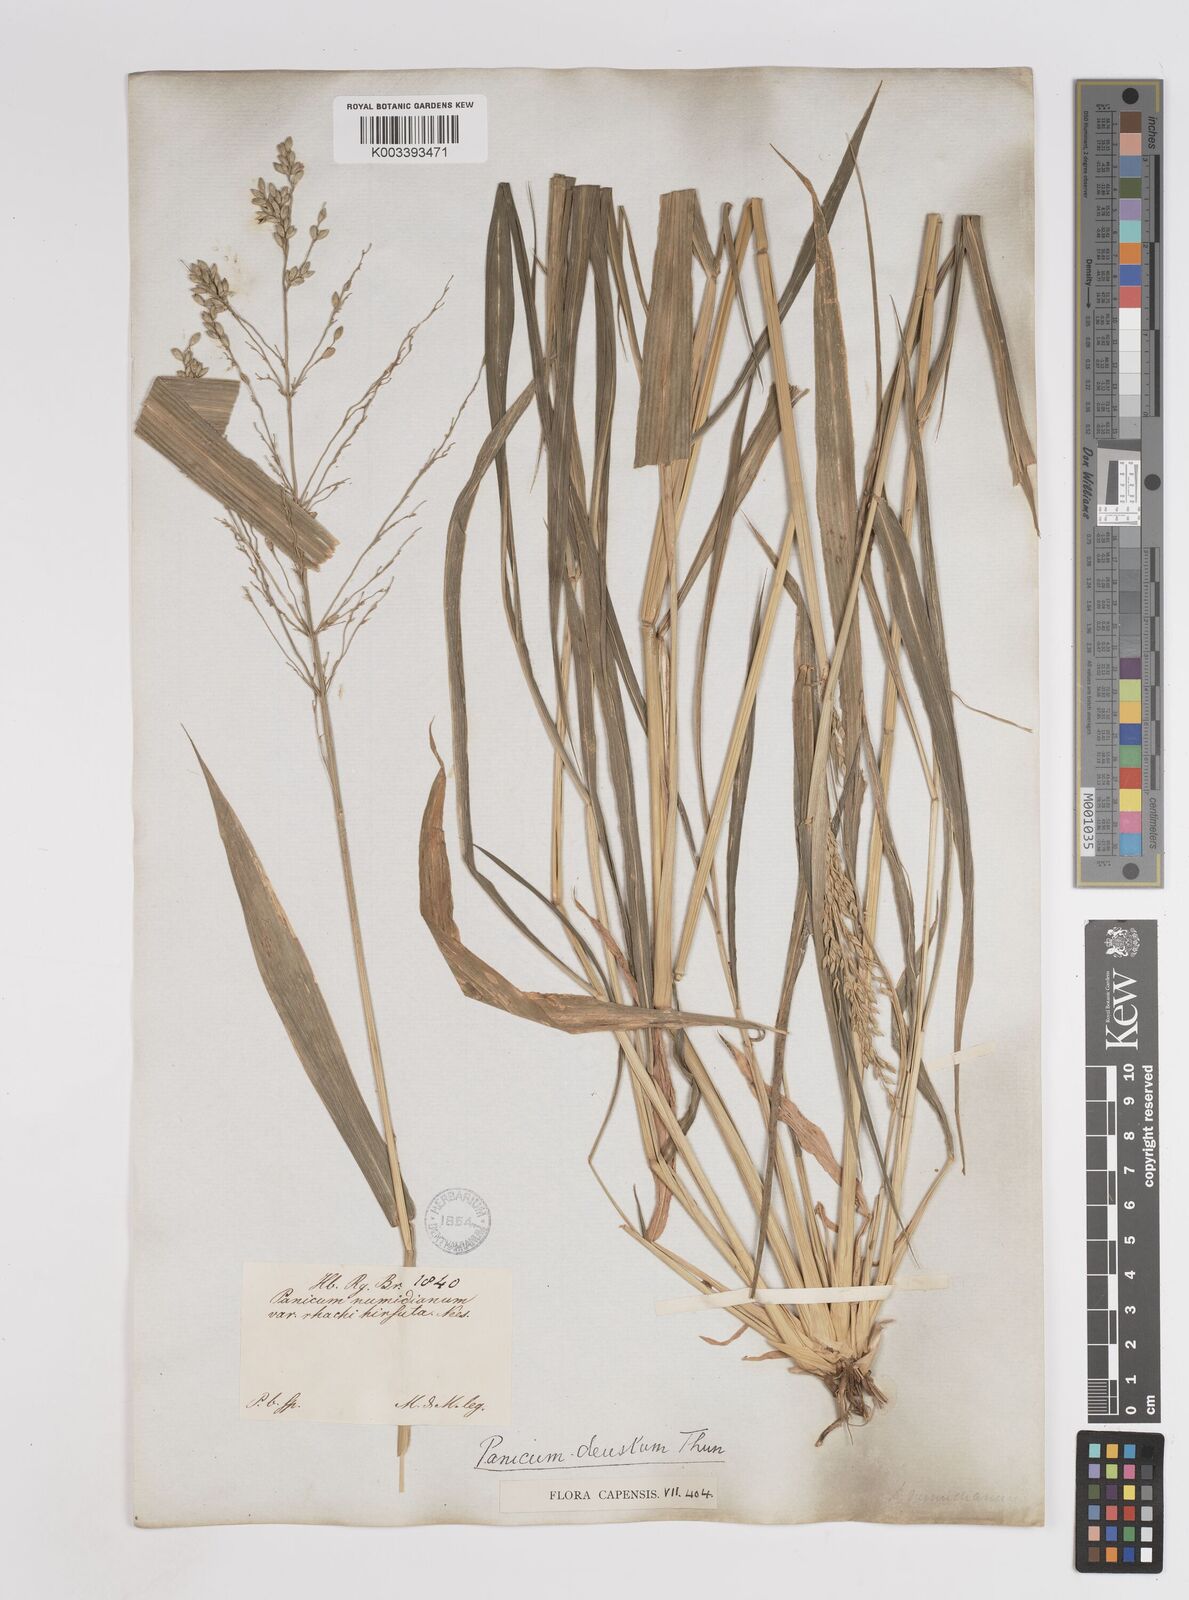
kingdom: Plantae
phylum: Tracheophyta
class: Liliopsida
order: Poales
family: Poaceae
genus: Panicum
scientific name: Panicum deustum
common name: Reed panicum
